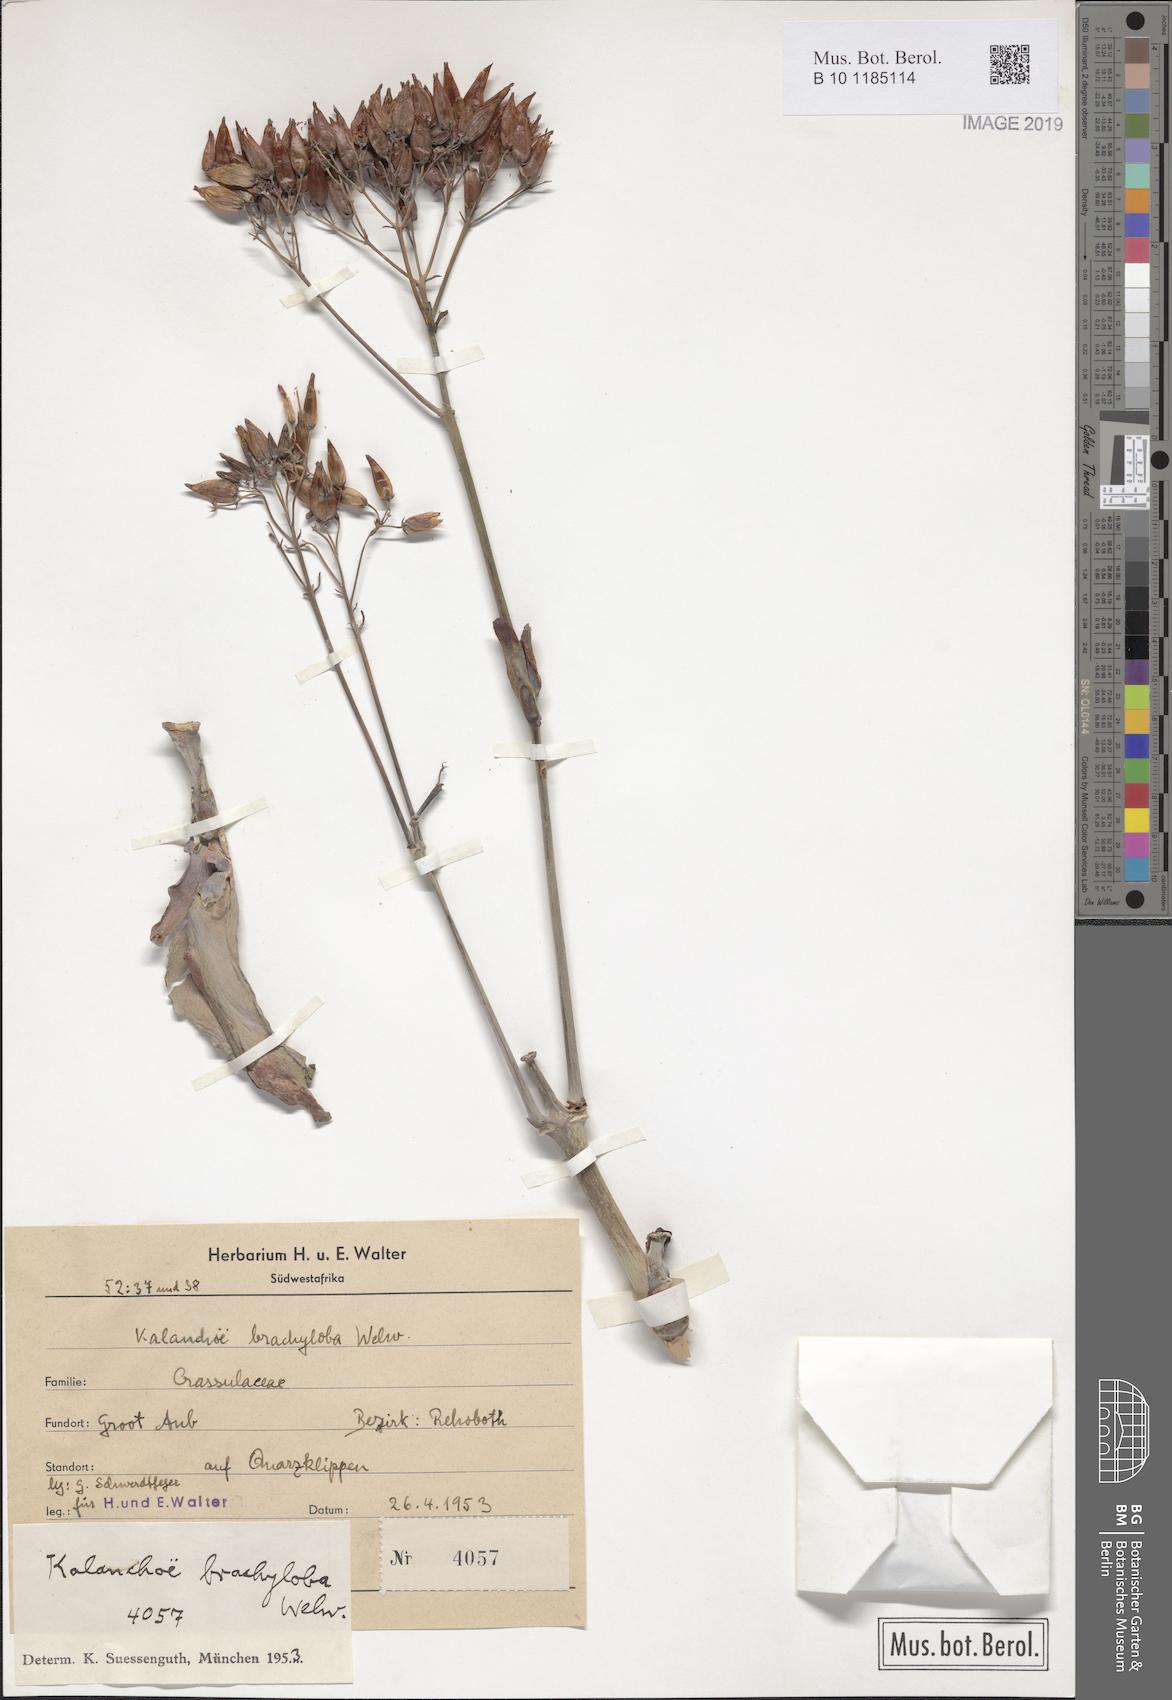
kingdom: Plantae
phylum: Tracheophyta
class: Magnoliopsida
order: Saxifragales
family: Crassulaceae
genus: Kalanchoe
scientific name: Kalanchoe brachyloba
